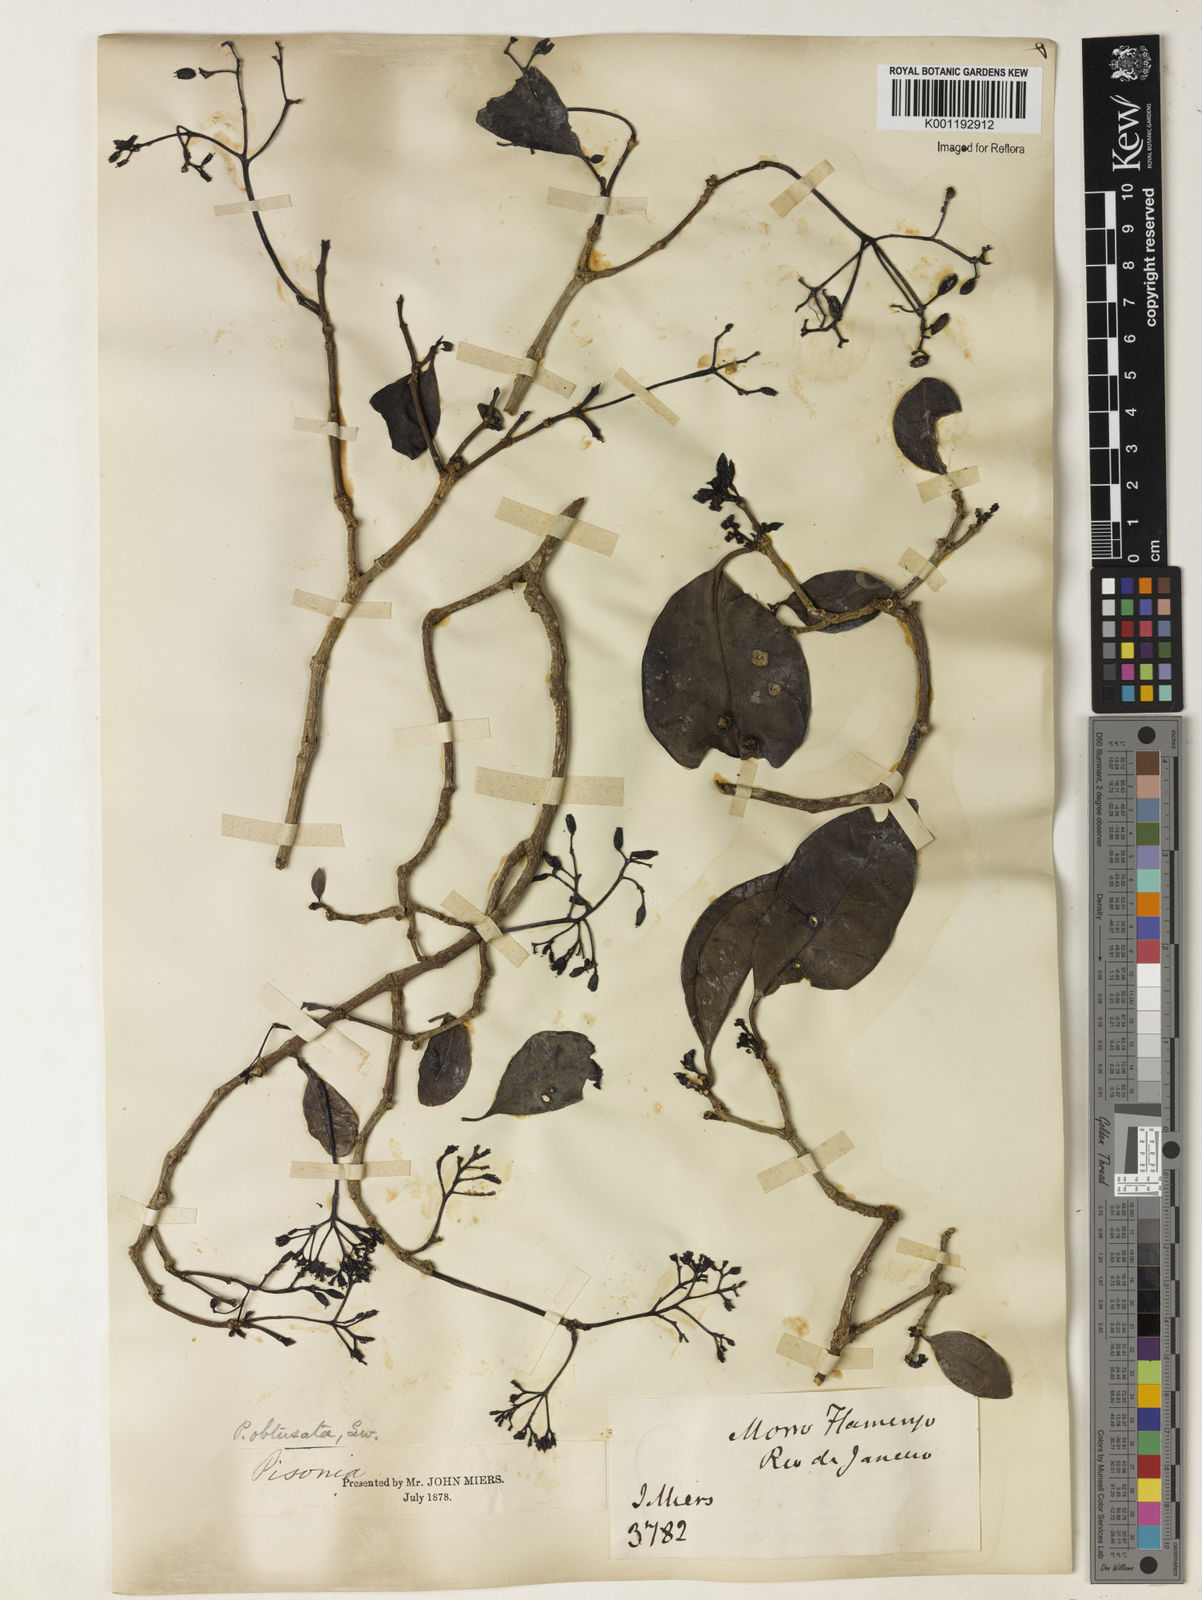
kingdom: Plantae
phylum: Tracheophyta
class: Magnoliopsida
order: Caryophyllales
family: Nyctaginaceae
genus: Guapira
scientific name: Guapira obtusata
